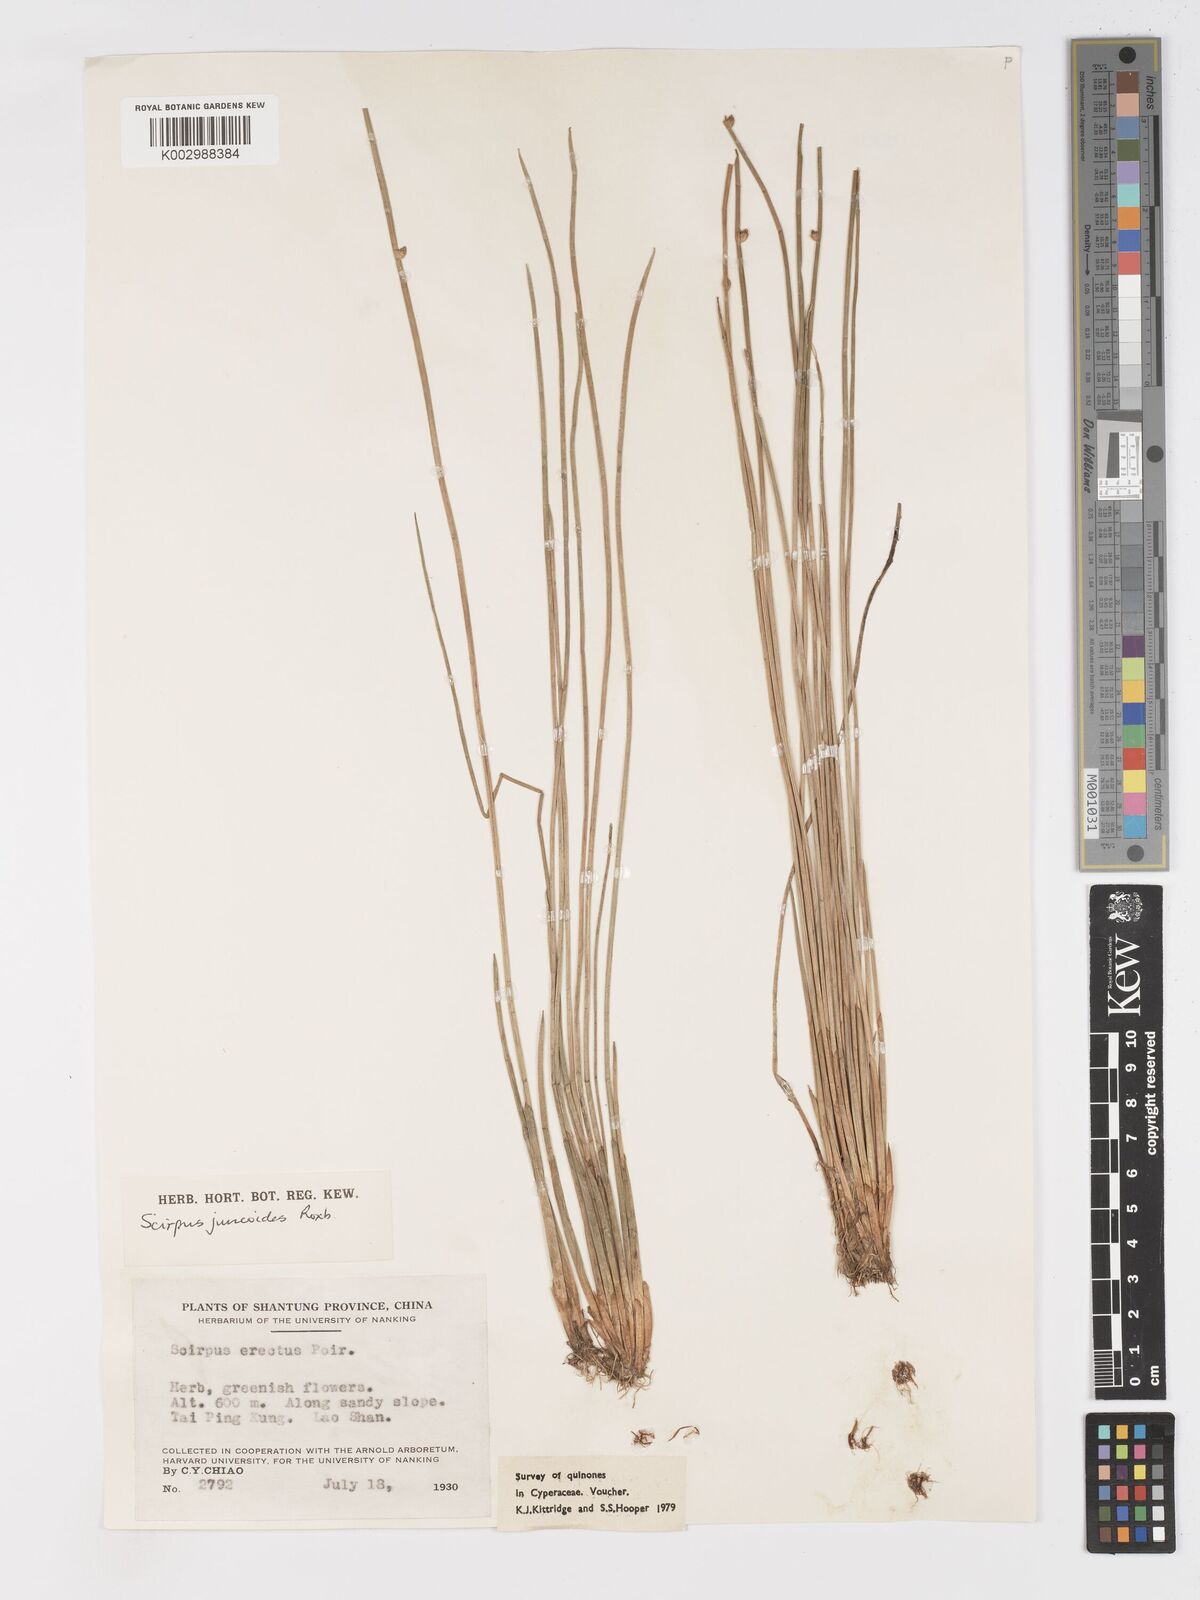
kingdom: Plantae
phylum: Tracheophyta
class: Liliopsida
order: Poales
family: Cyperaceae
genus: Schoenoplectiella
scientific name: Schoenoplectiella erecta
